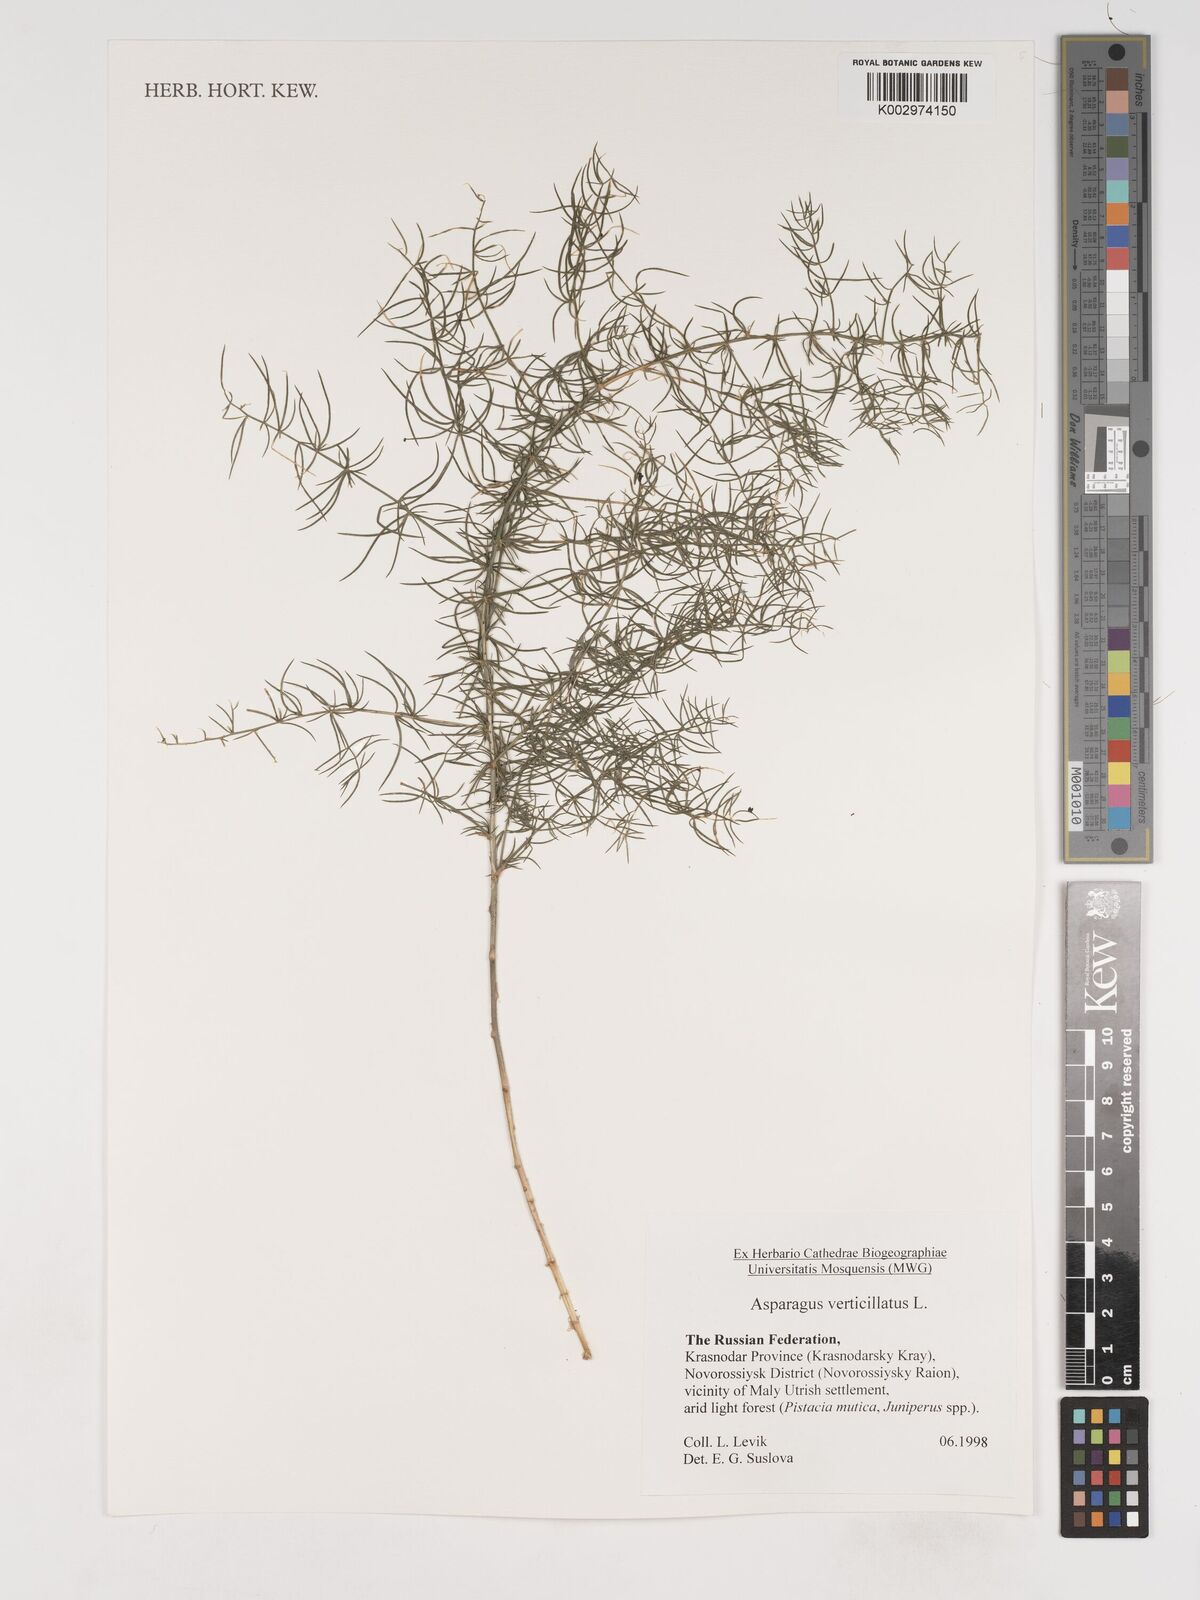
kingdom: Plantae
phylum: Tracheophyta
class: Liliopsida
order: Asparagales
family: Asparagaceae
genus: Asparagus
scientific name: Asparagus verticillatus
